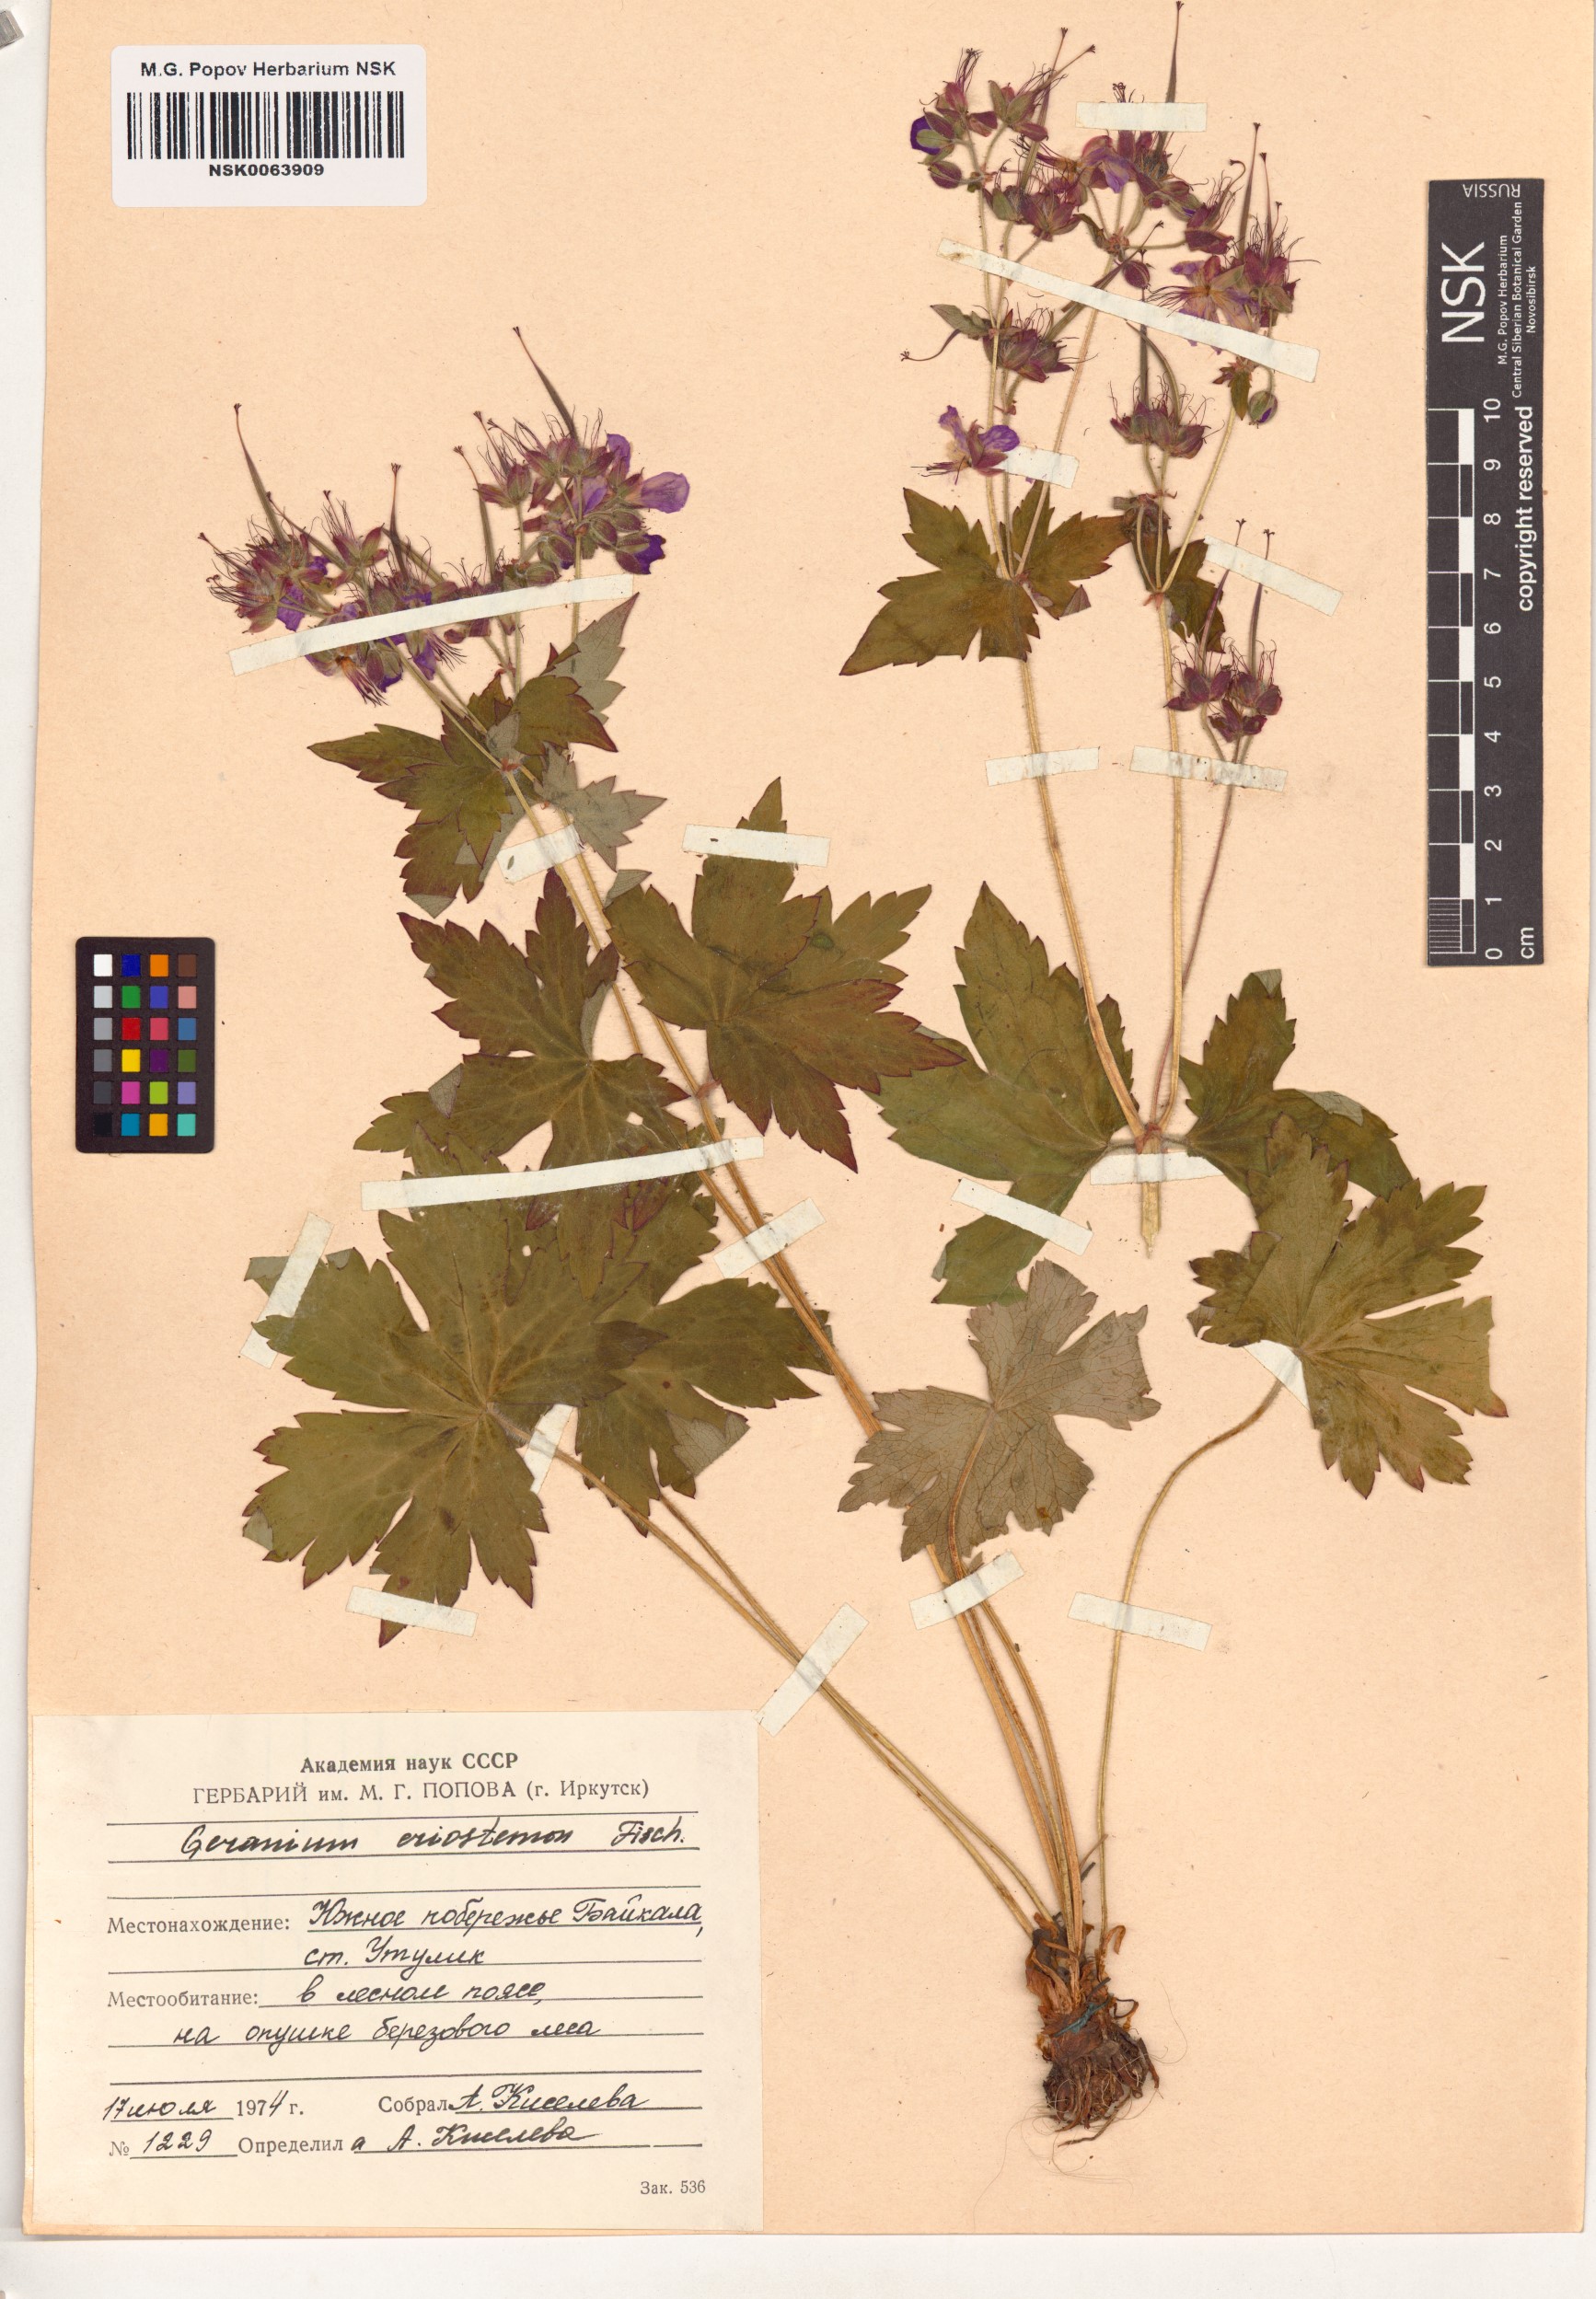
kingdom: Plantae
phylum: Tracheophyta
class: Magnoliopsida
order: Geraniales
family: Geraniaceae
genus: Geranium
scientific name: Geranium platyanthum
